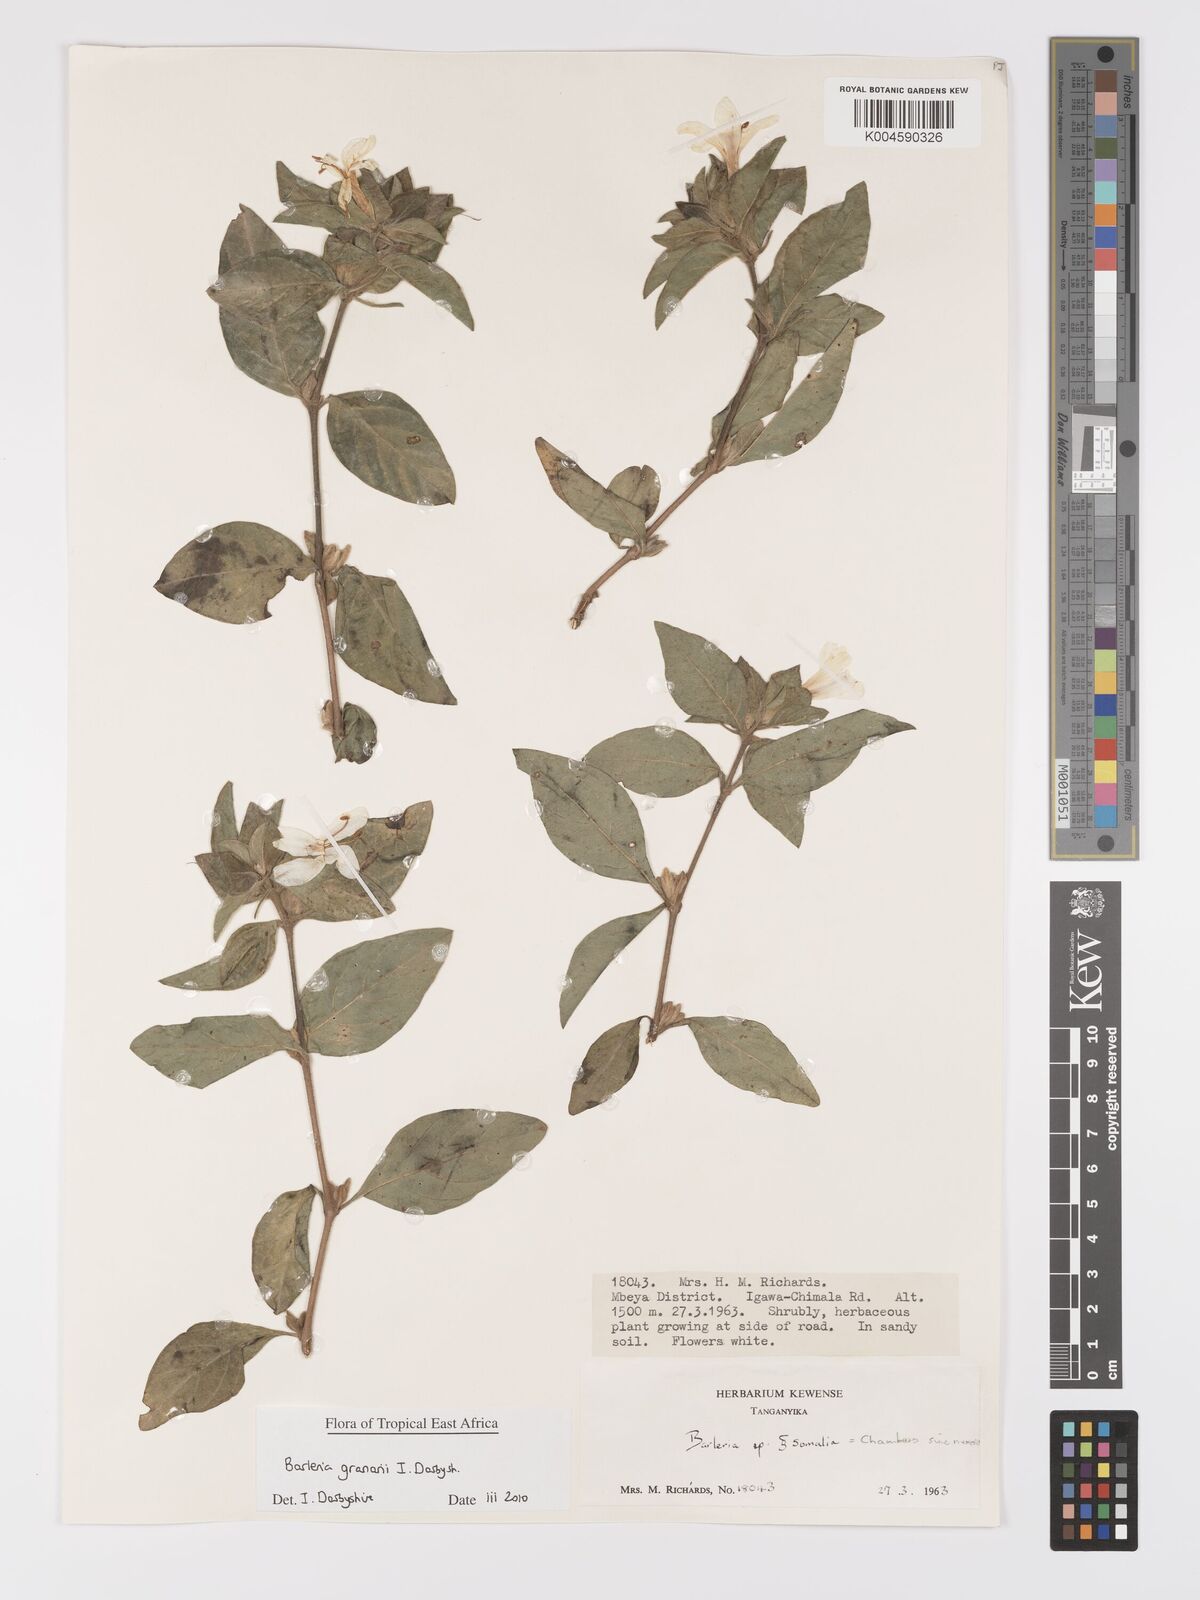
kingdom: Plantae
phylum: Tracheophyta
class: Magnoliopsida
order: Lamiales
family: Acanthaceae
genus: Barleria
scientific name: Barleria granarii
